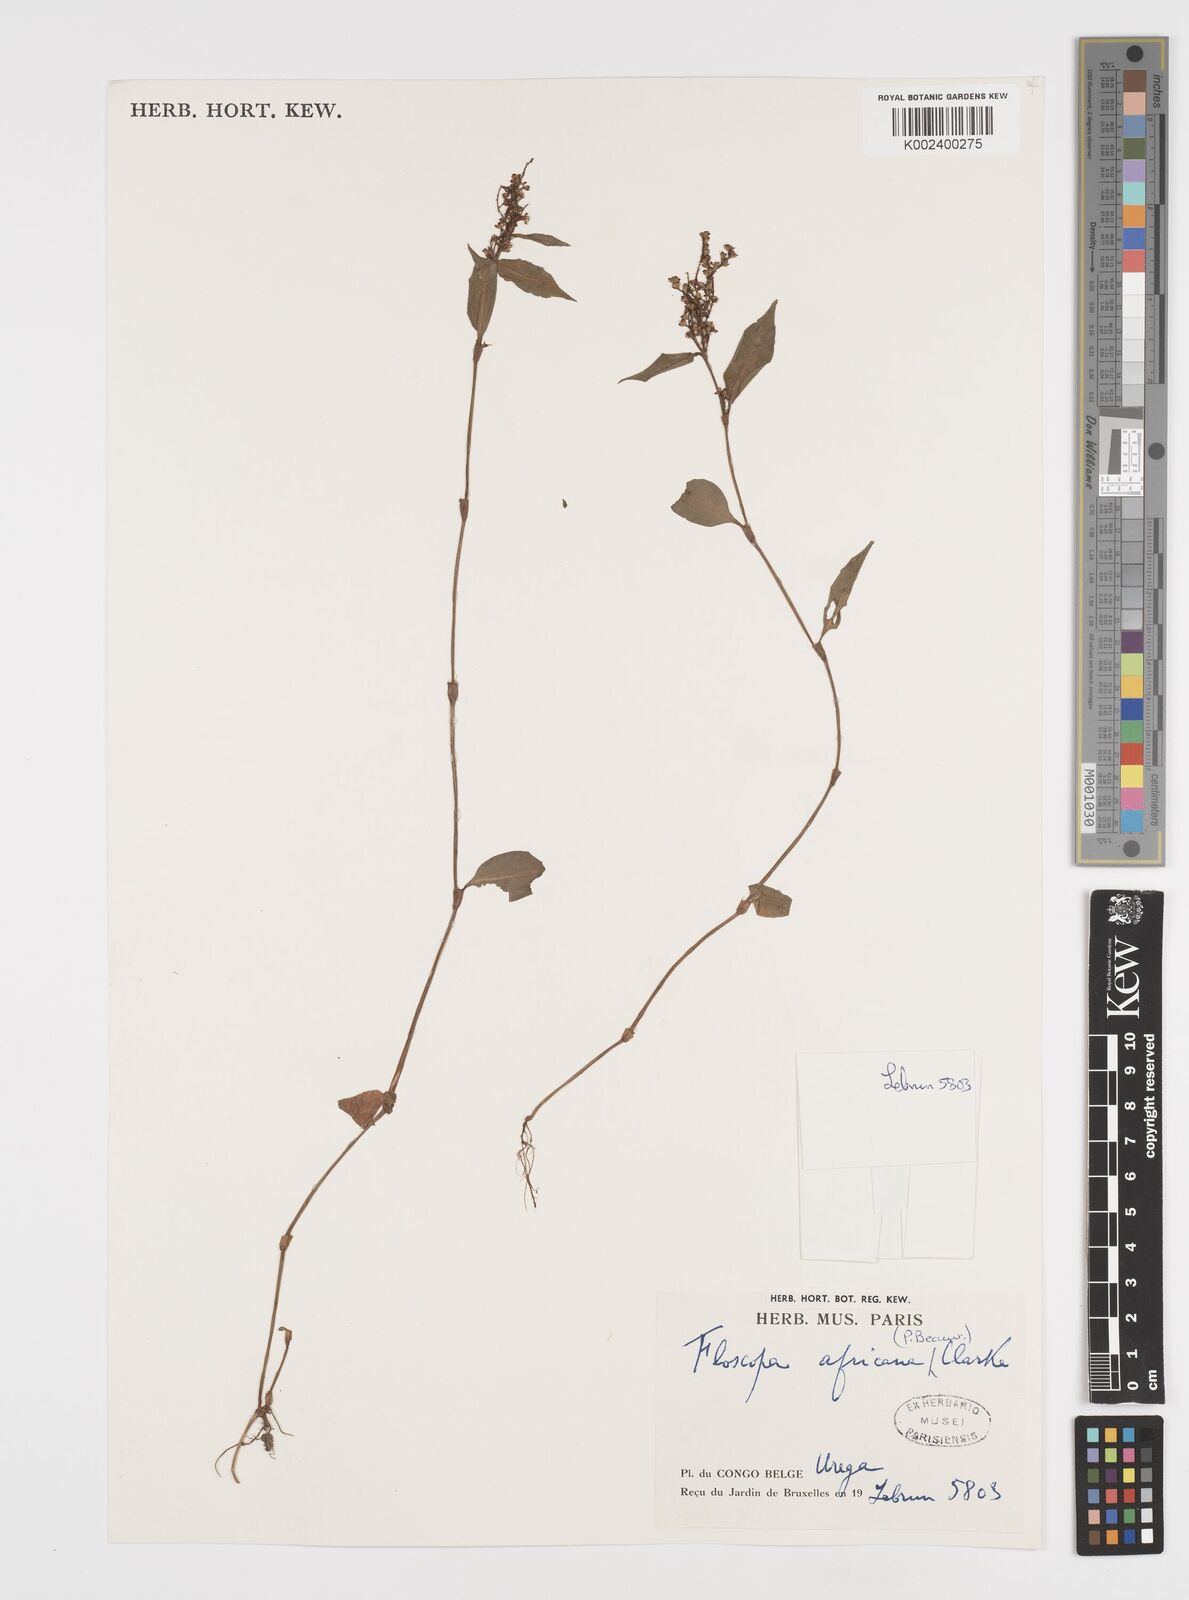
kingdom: Plantae
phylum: Tracheophyta
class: Liliopsida
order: Commelinales
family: Commelinaceae
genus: Floscopa
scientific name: Floscopa africana
